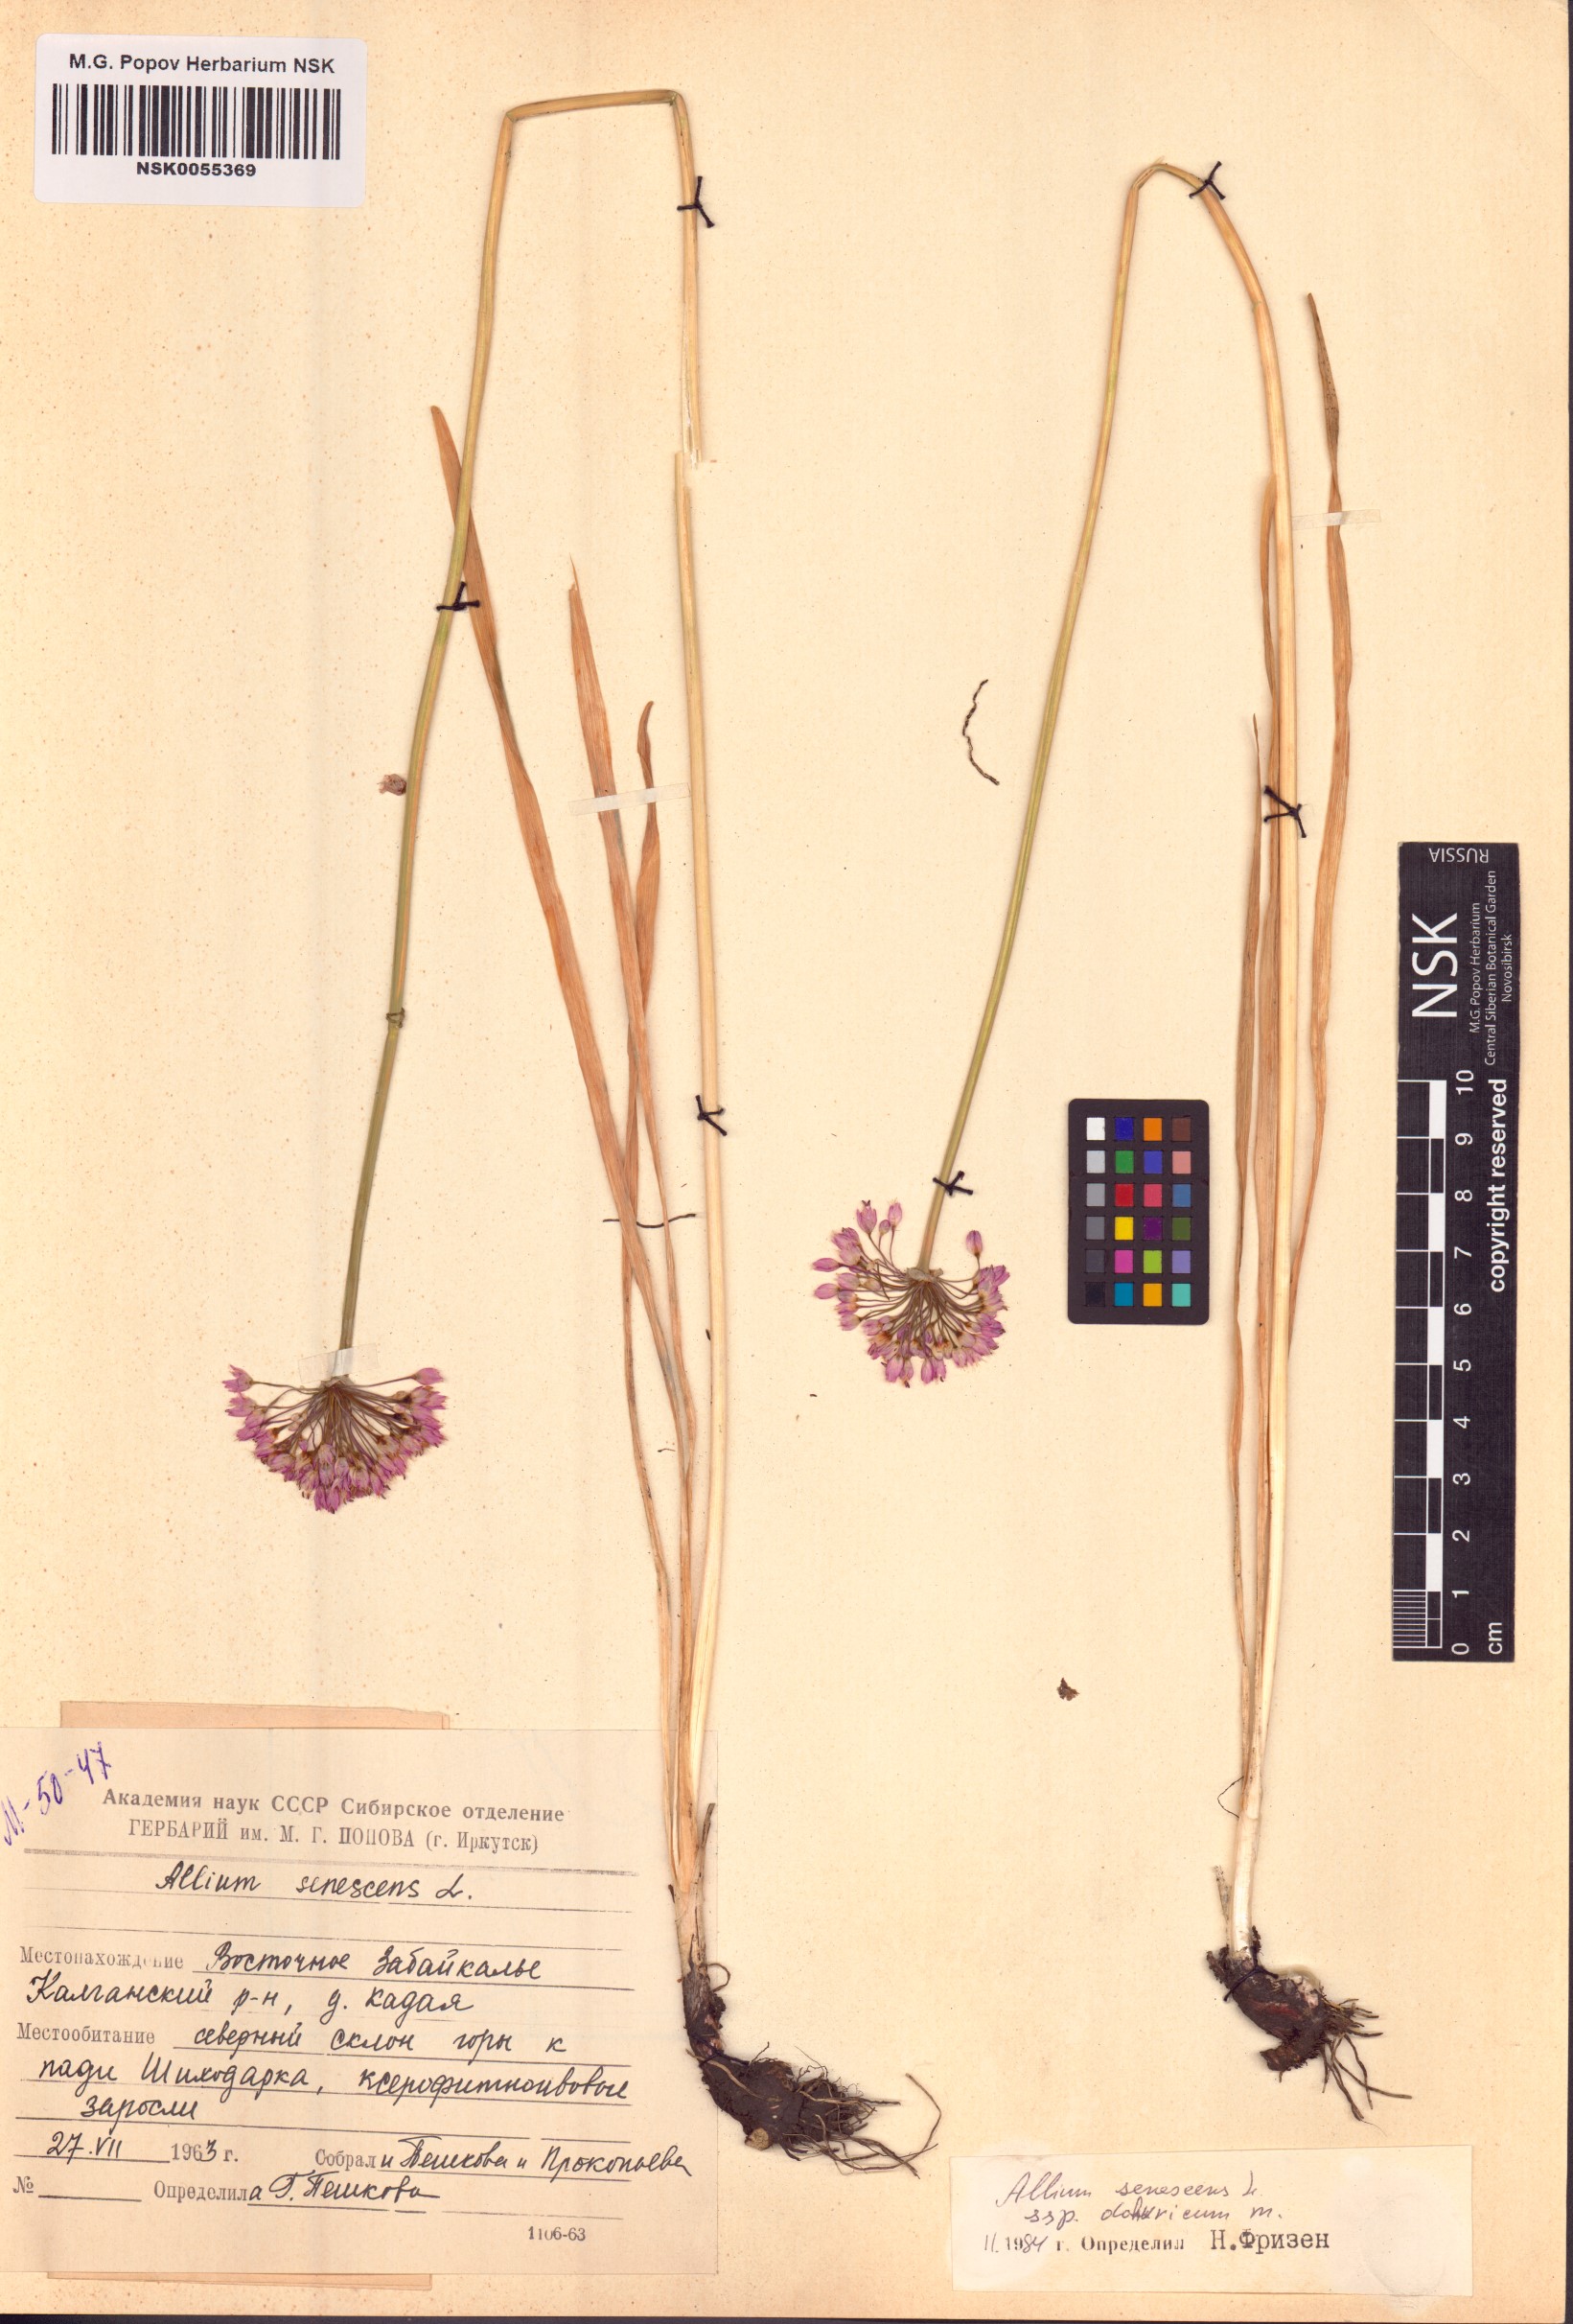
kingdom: Plantae
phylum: Tracheophyta
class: Liliopsida
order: Asparagales
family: Amaryllidaceae
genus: Allium
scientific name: Allium senescens
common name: German garlic
